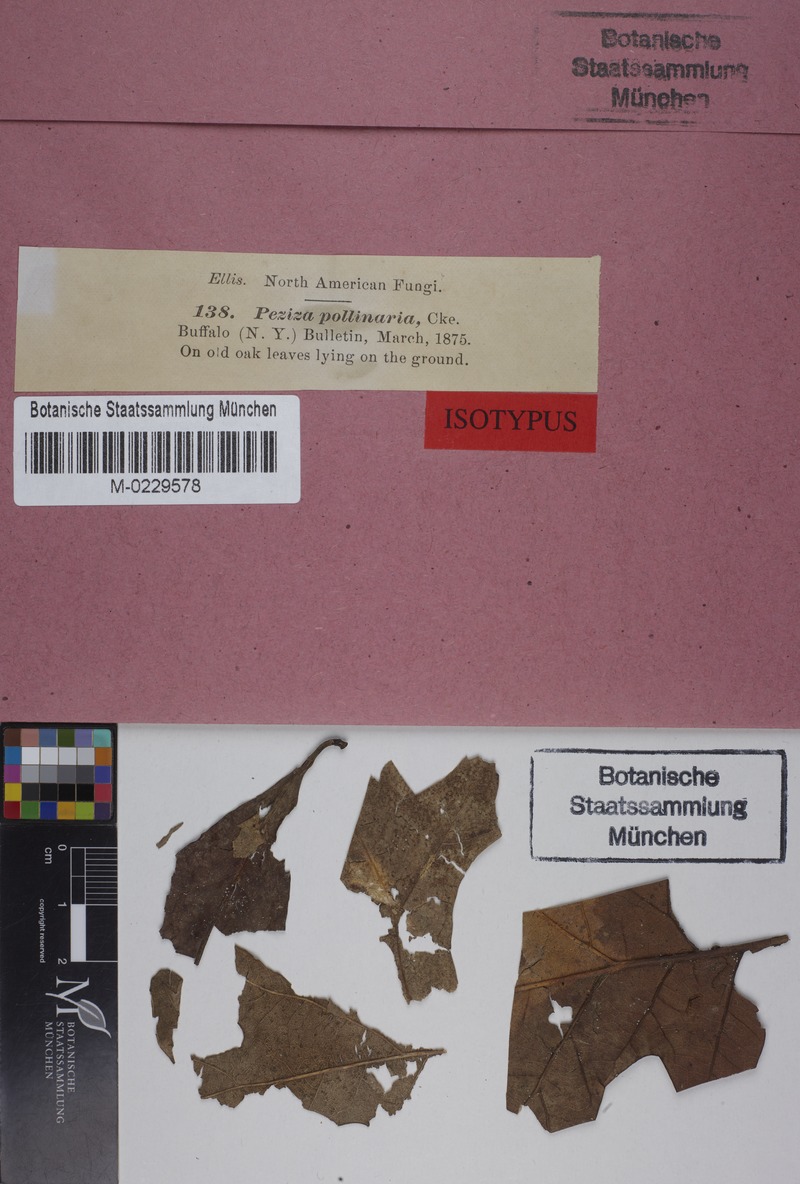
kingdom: Fungi
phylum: Basidiomycota
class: Agaricomycetes
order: Agaricales
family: Niaceae
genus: Lachnella
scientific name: Lachnella pollinaria
